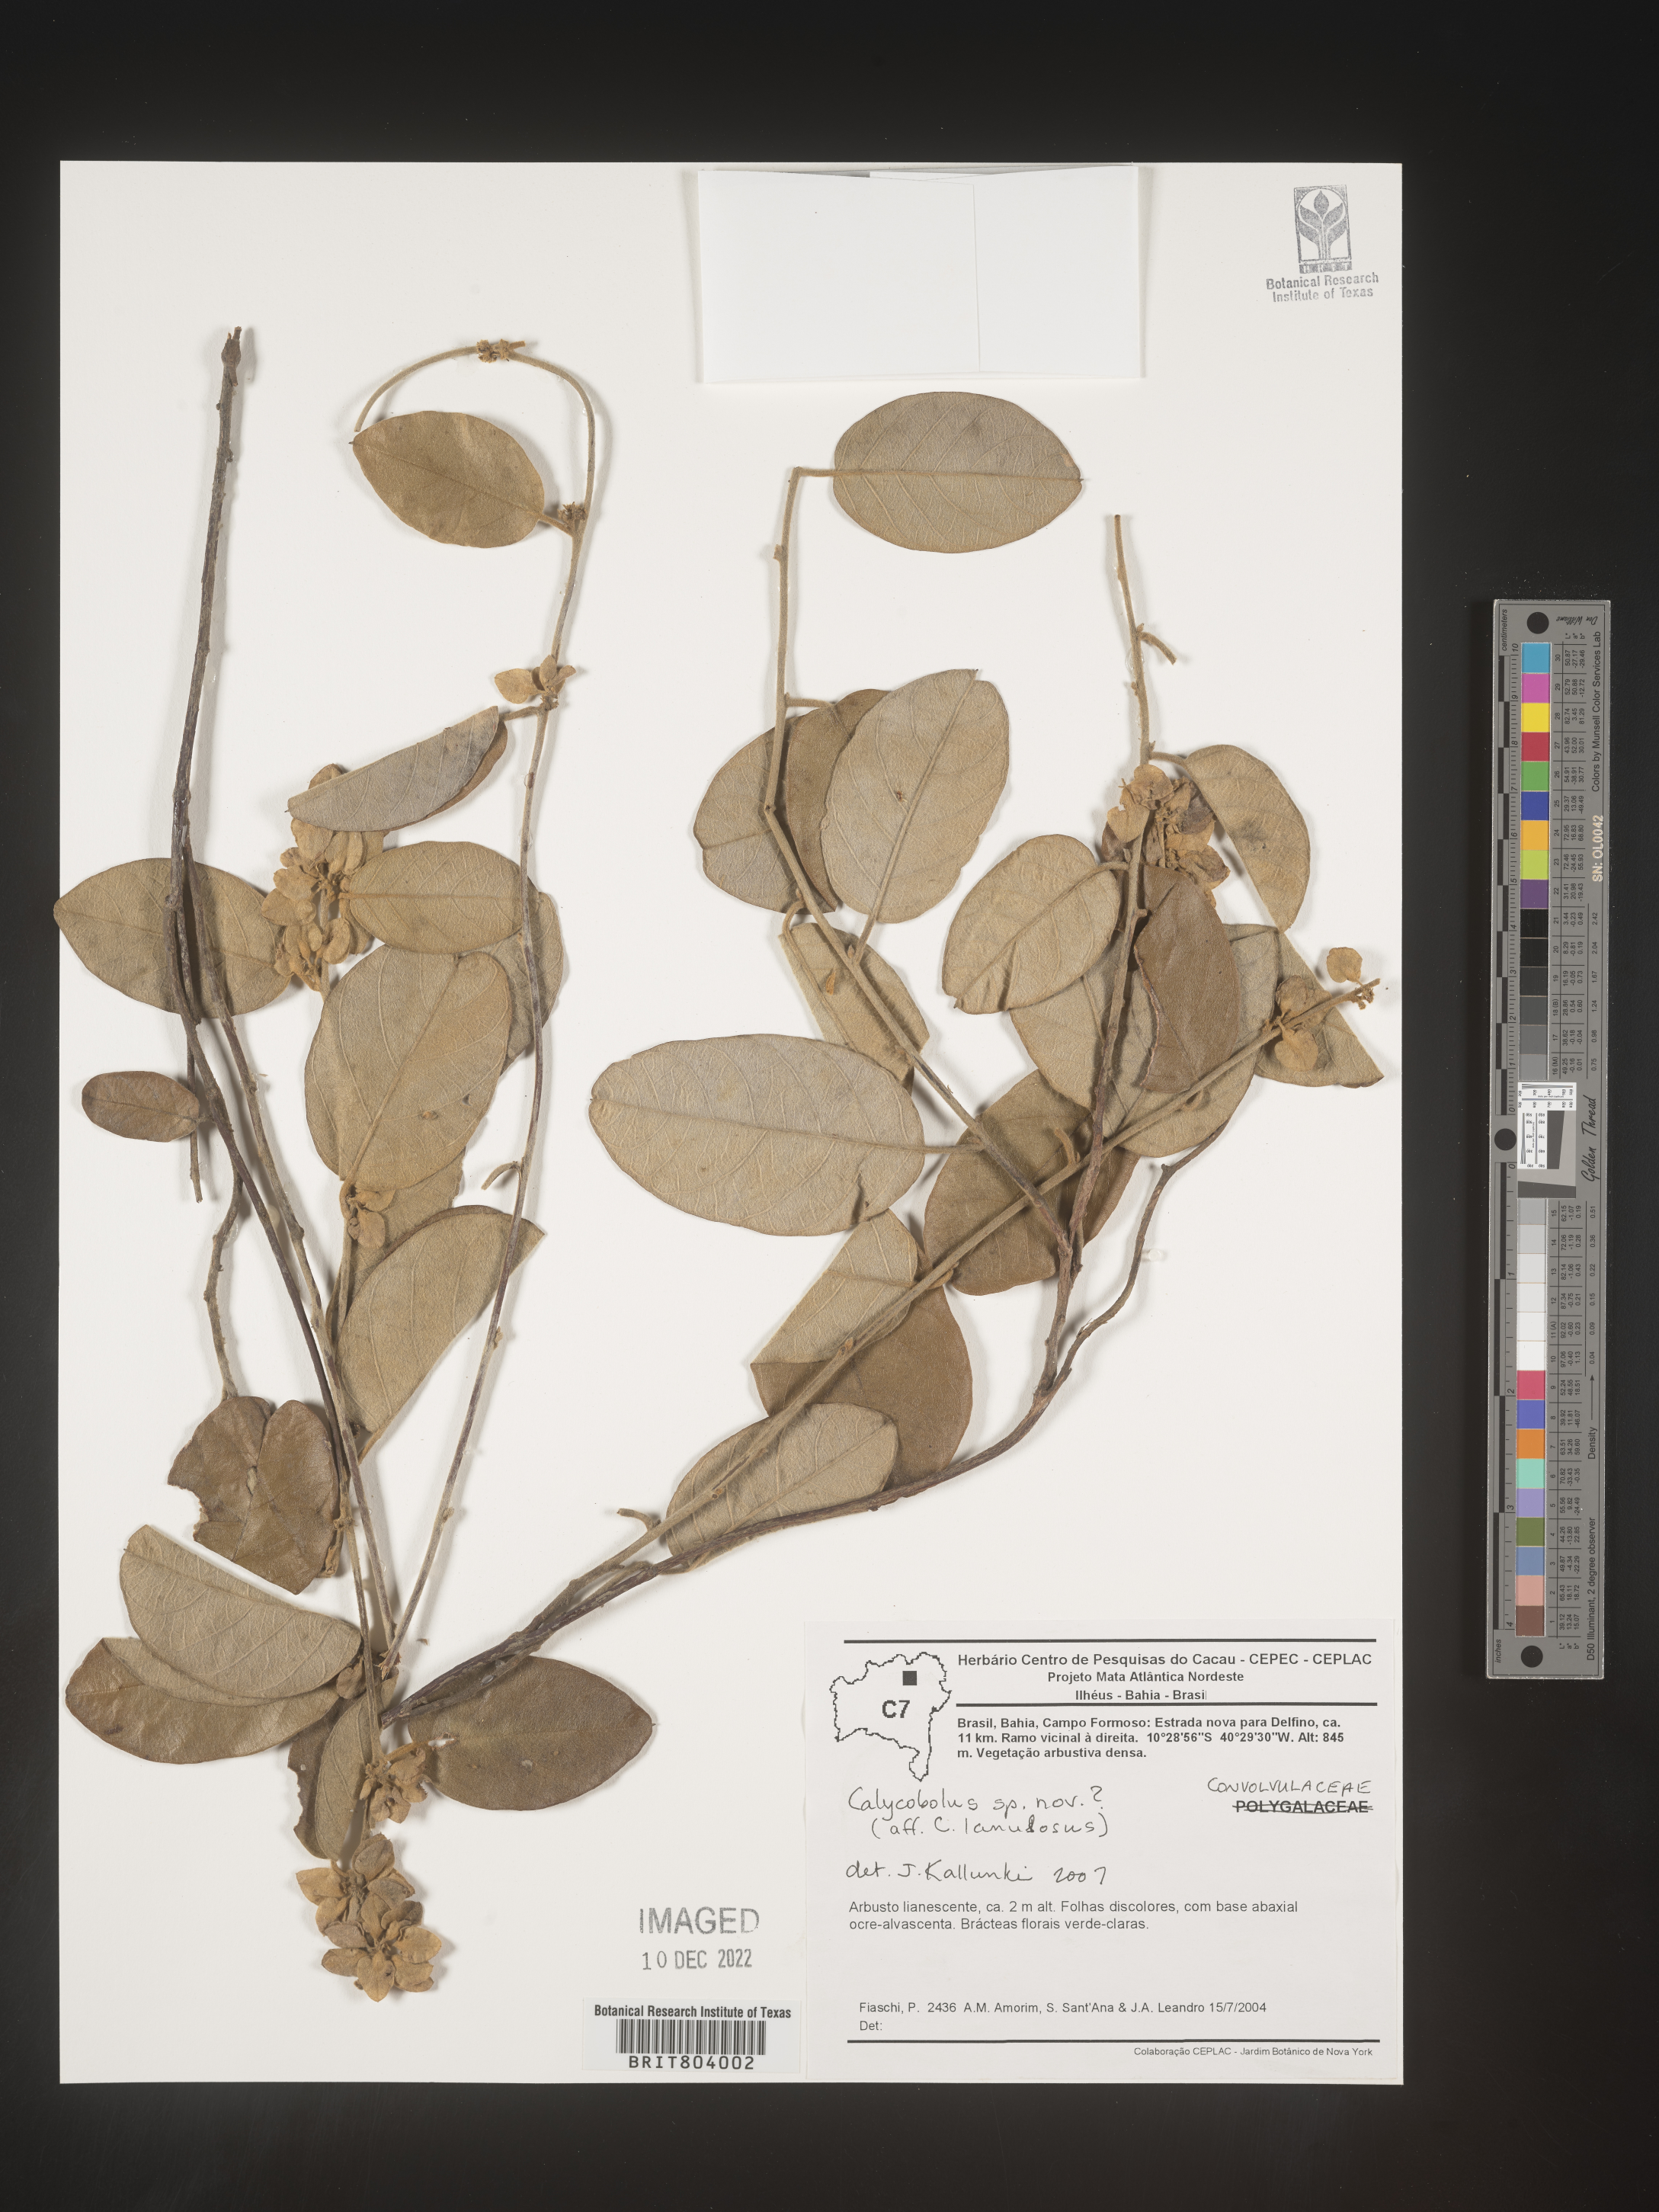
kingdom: Plantae
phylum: Tracheophyta
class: Magnoliopsida
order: Solanales
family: Convolvulaceae
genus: Calycobolus
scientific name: Calycobolus
